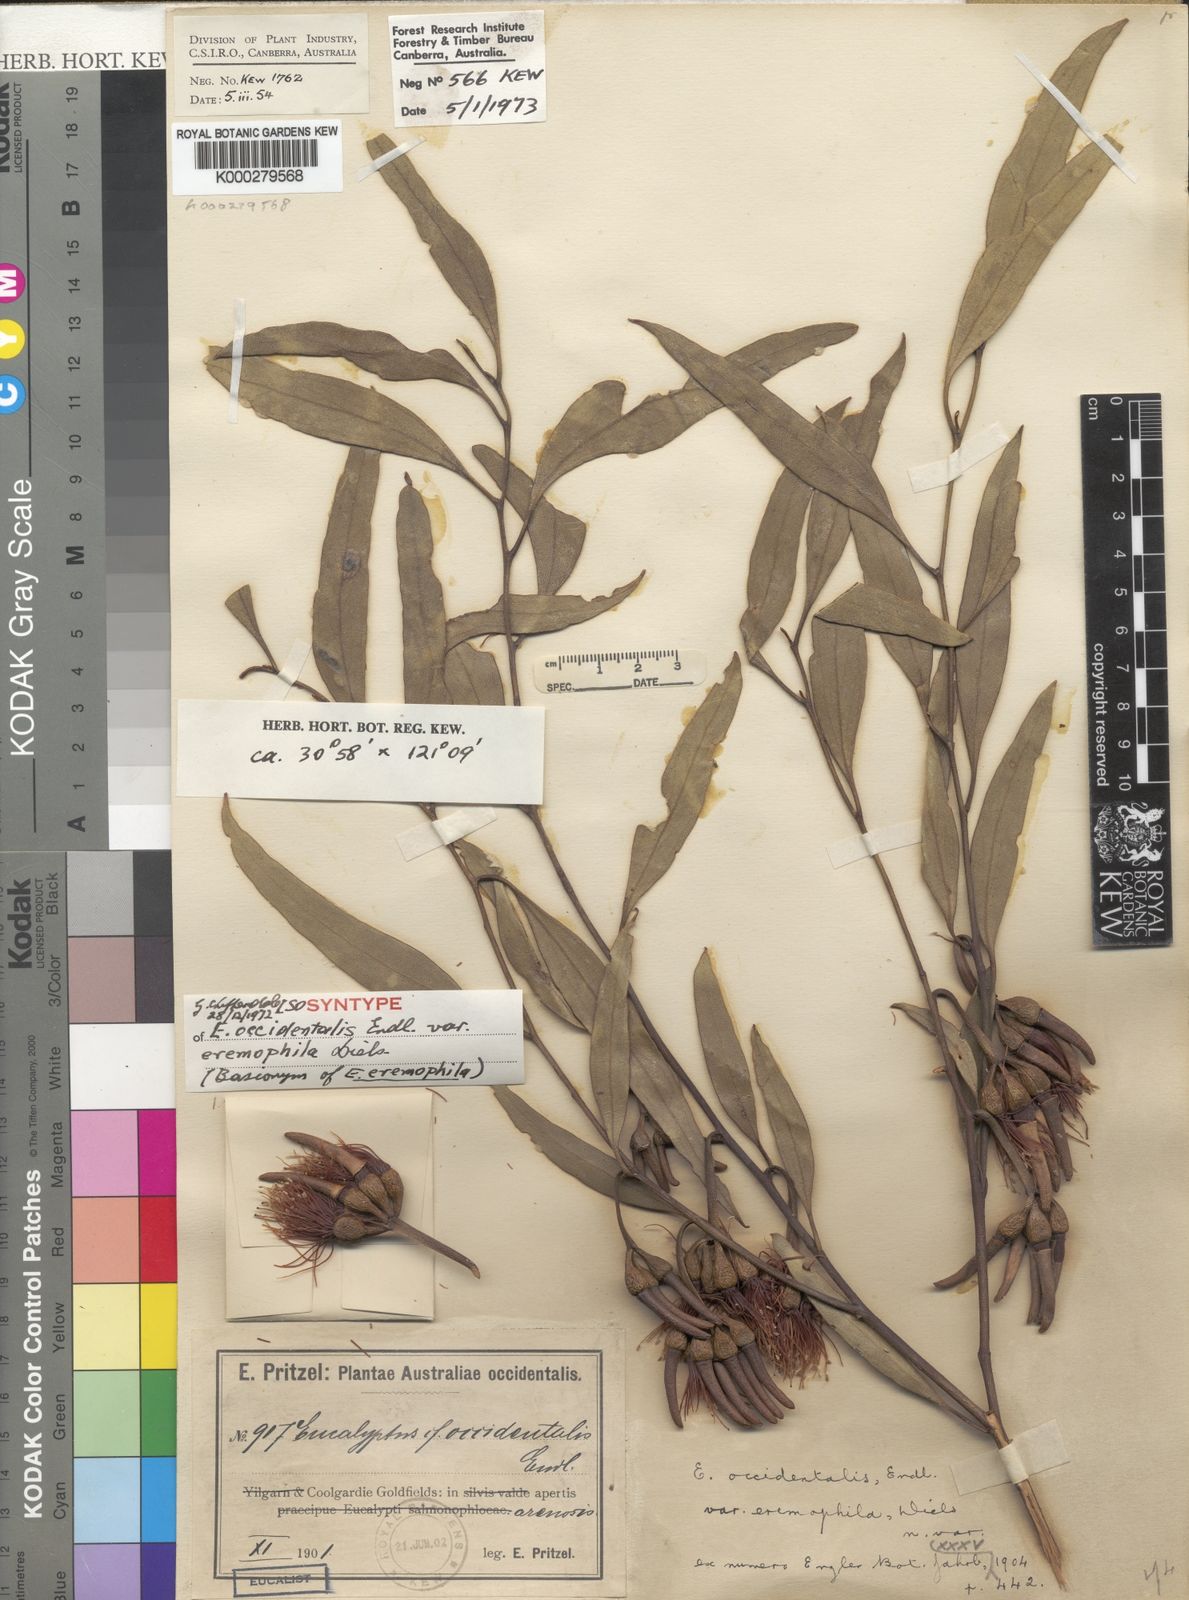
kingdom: Plantae
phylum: Tracheophyta
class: Magnoliopsida
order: Myrtales
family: Myrtaceae
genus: Eucalyptus
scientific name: Eucalyptus eremophila
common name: Tall sand mallee
